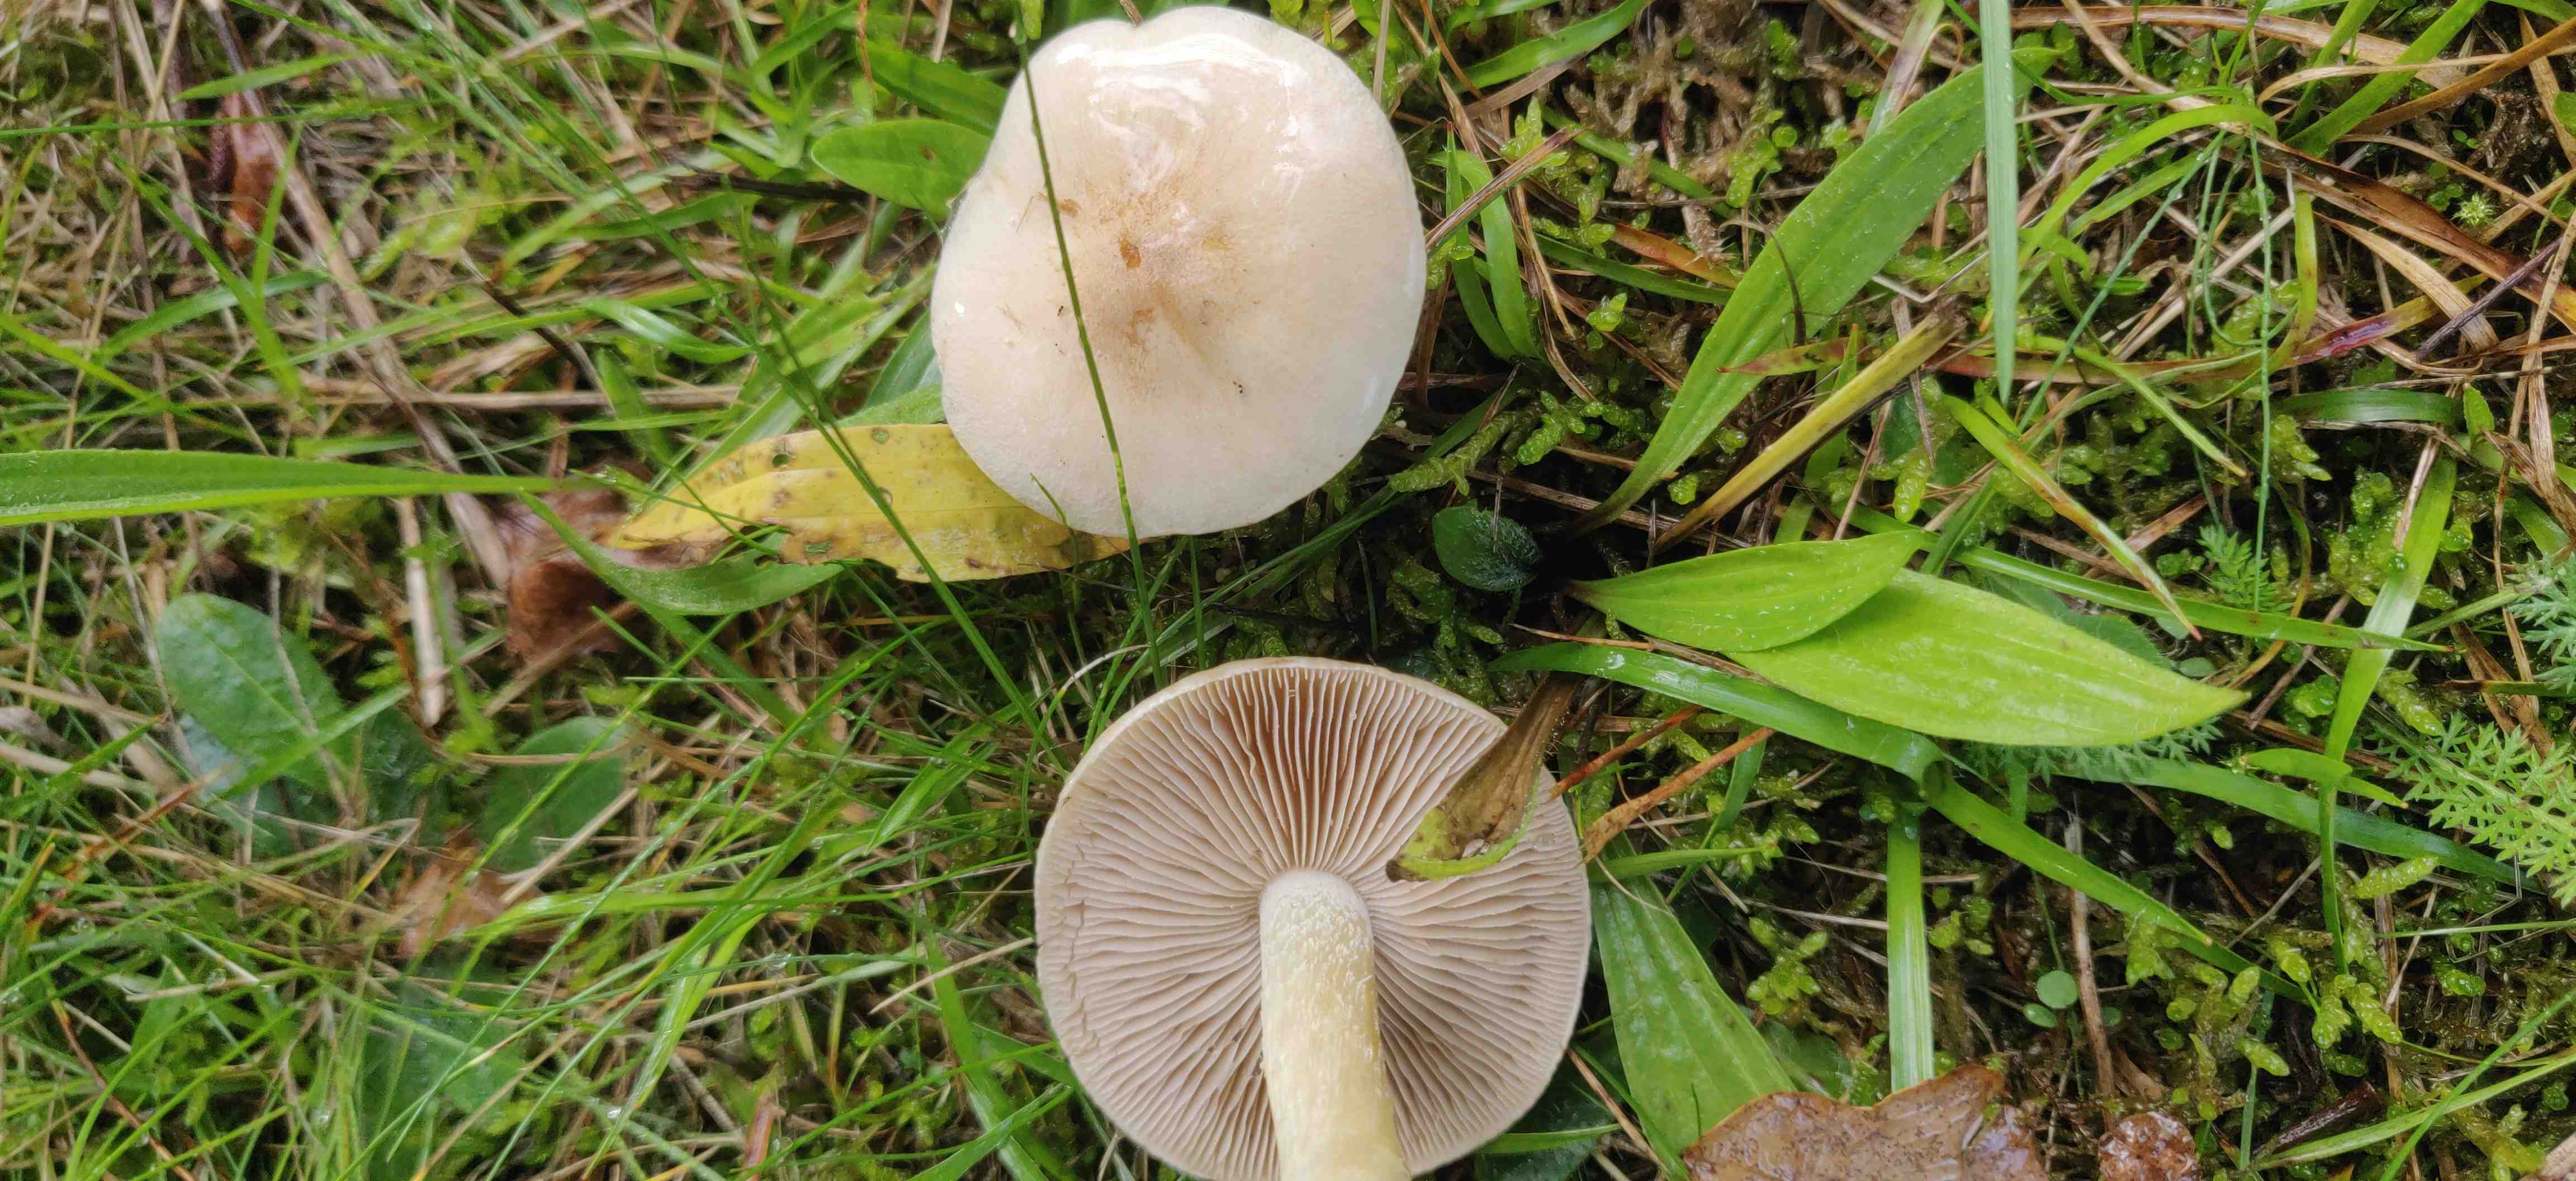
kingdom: Fungi
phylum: Basidiomycota
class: Agaricomycetes
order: Agaricales
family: Hymenogastraceae
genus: Hebeloma
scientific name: Hebeloma
